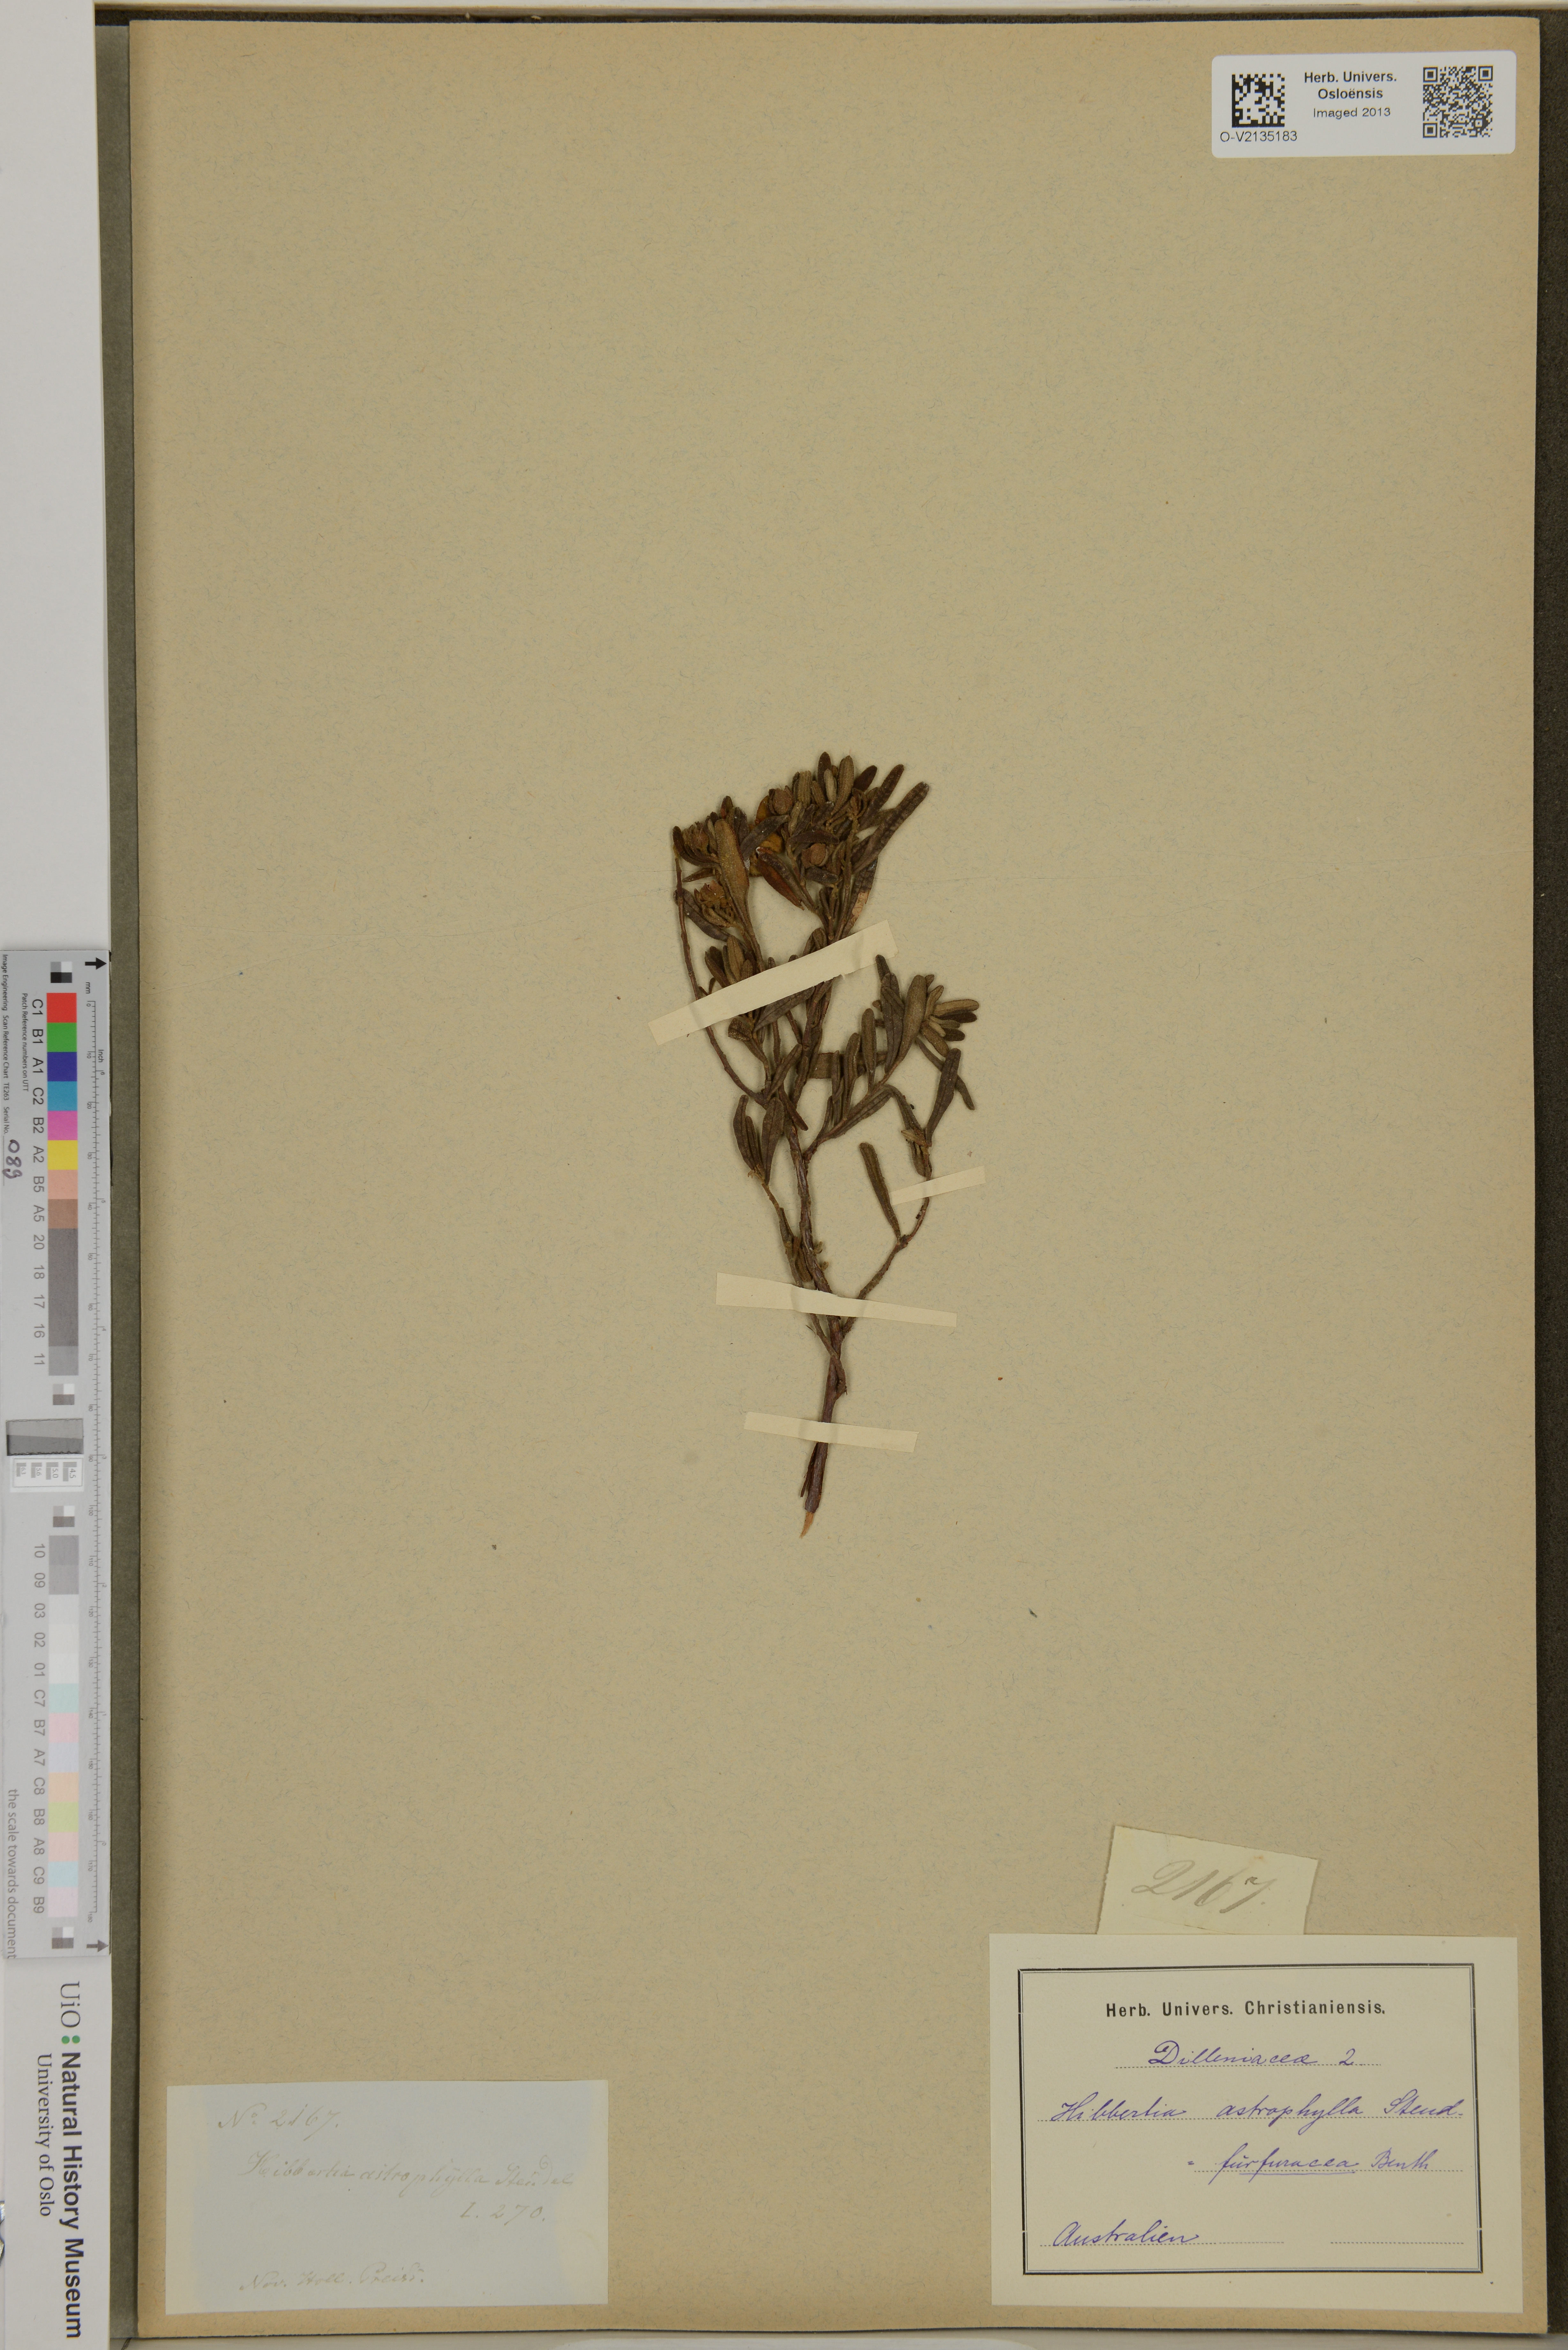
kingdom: Plantae
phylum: Tracheophyta
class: Magnoliopsida
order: Dilleniales
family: Dilleniaceae
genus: Hibbertia
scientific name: Hibbertia furfuracea
